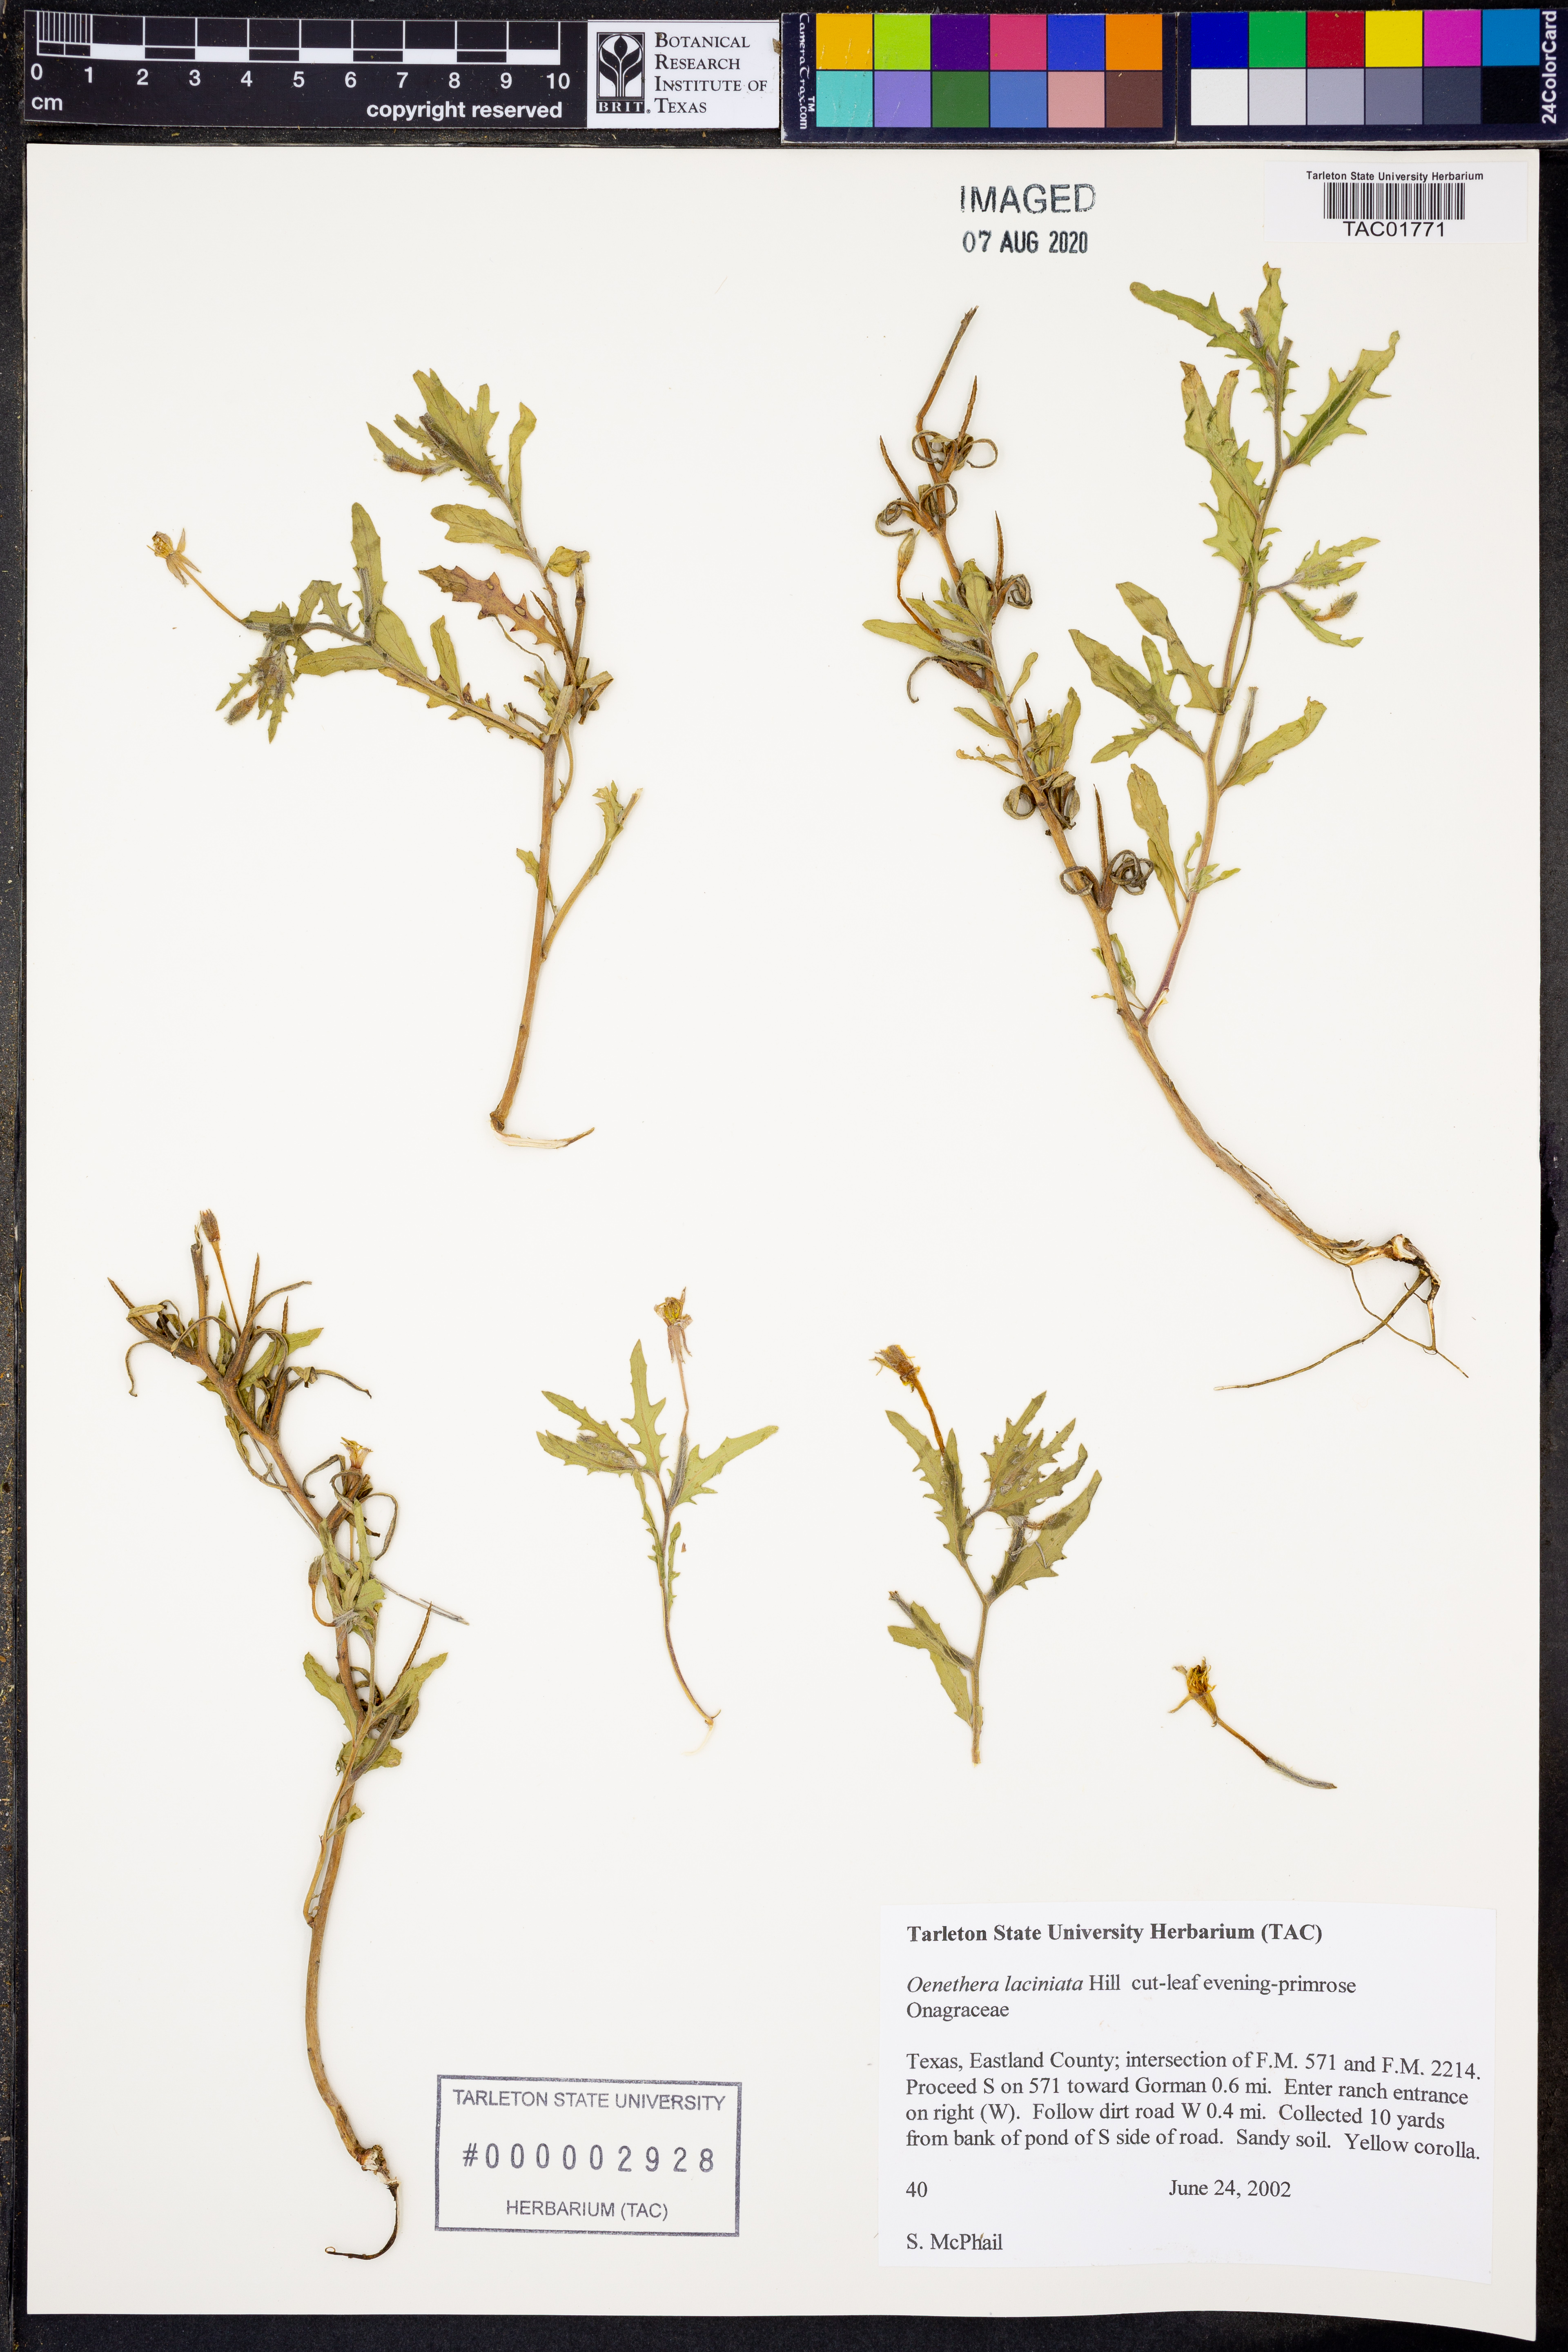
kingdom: Plantae
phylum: Tracheophyta
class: Magnoliopsida
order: Myrtales
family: Onagraceae
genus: Oenothera
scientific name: Oenothera laciniata
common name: Cut-leaved evening-primrose
